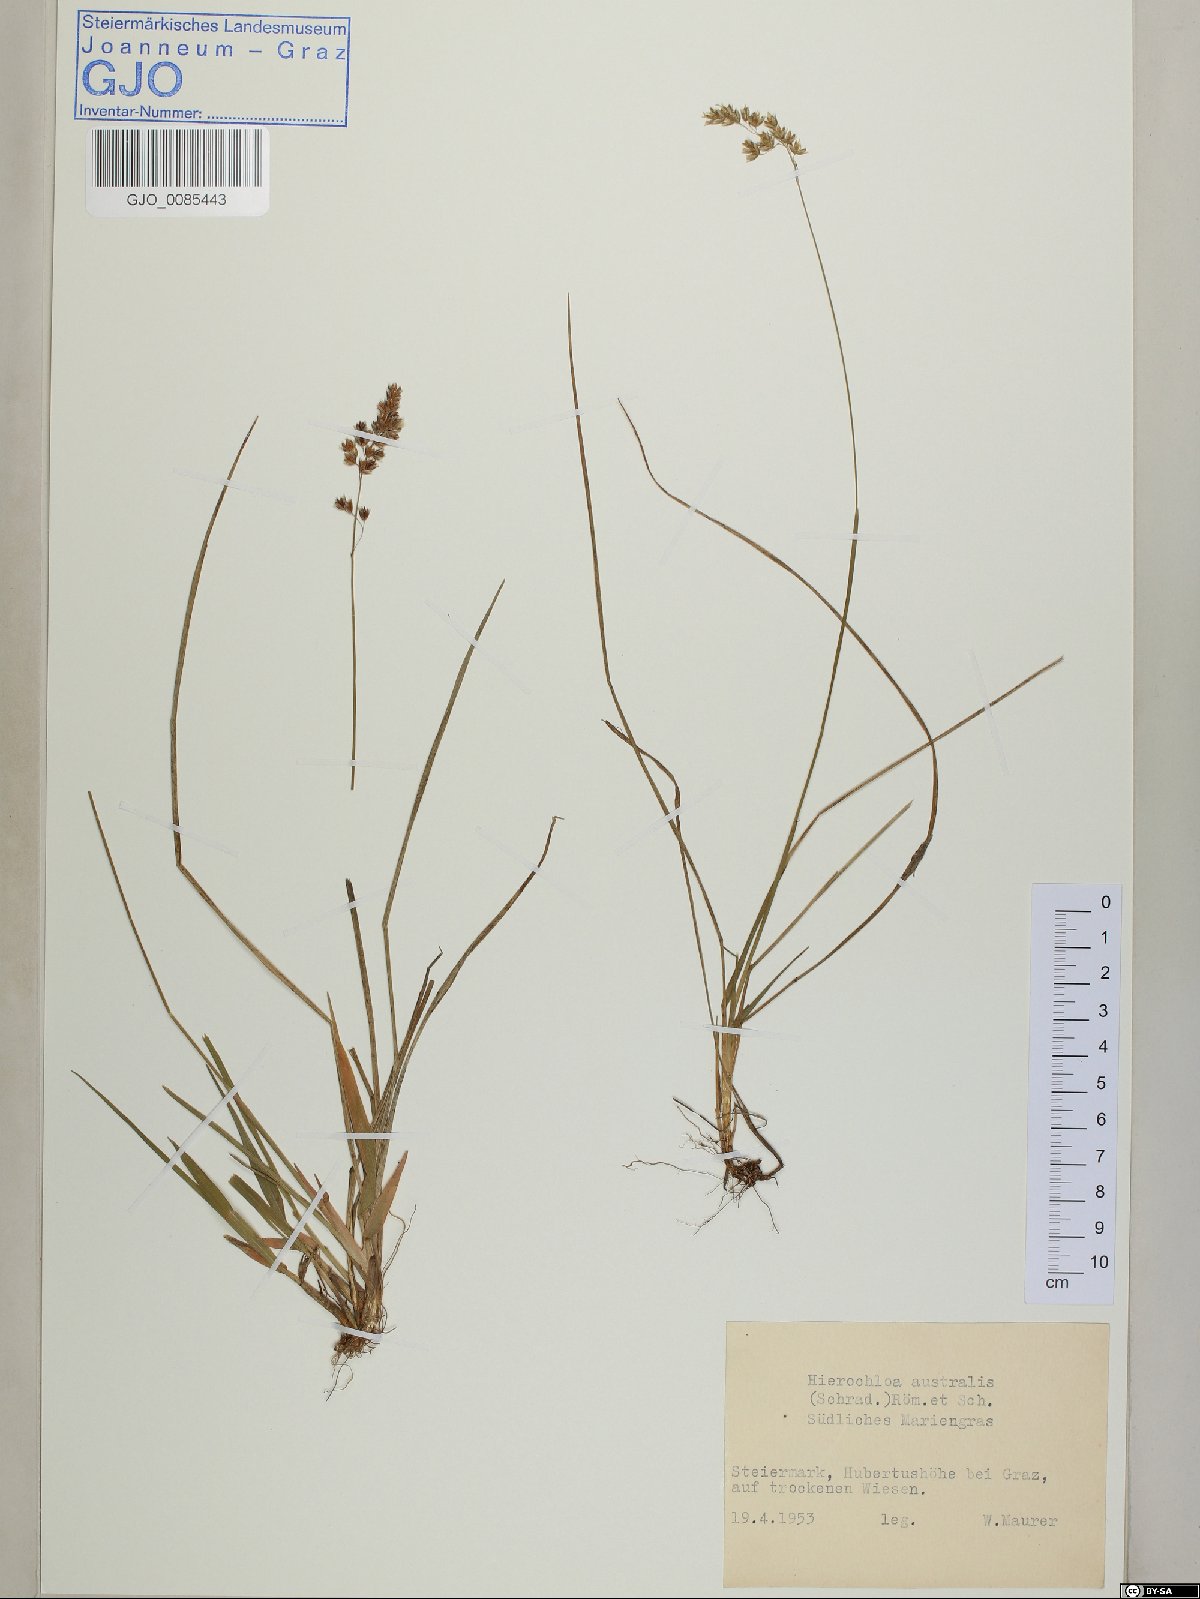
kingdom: Plantae
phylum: Tracheophyta
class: Liliopsida
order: Poales
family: Poaceae
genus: Anthoxanthum
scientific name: Anthoxanthum australe
